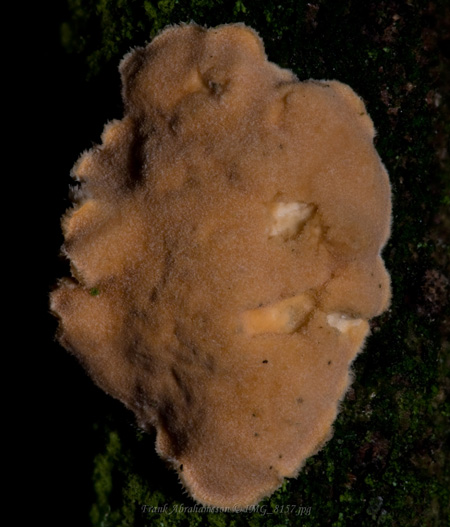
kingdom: Fungi
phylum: Basidiomycota
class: Agaricomycetes
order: Russulales
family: Stereaceae
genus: Aleurodiscus
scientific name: Aleurodiscus amorphus
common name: orange skiveskorpe
